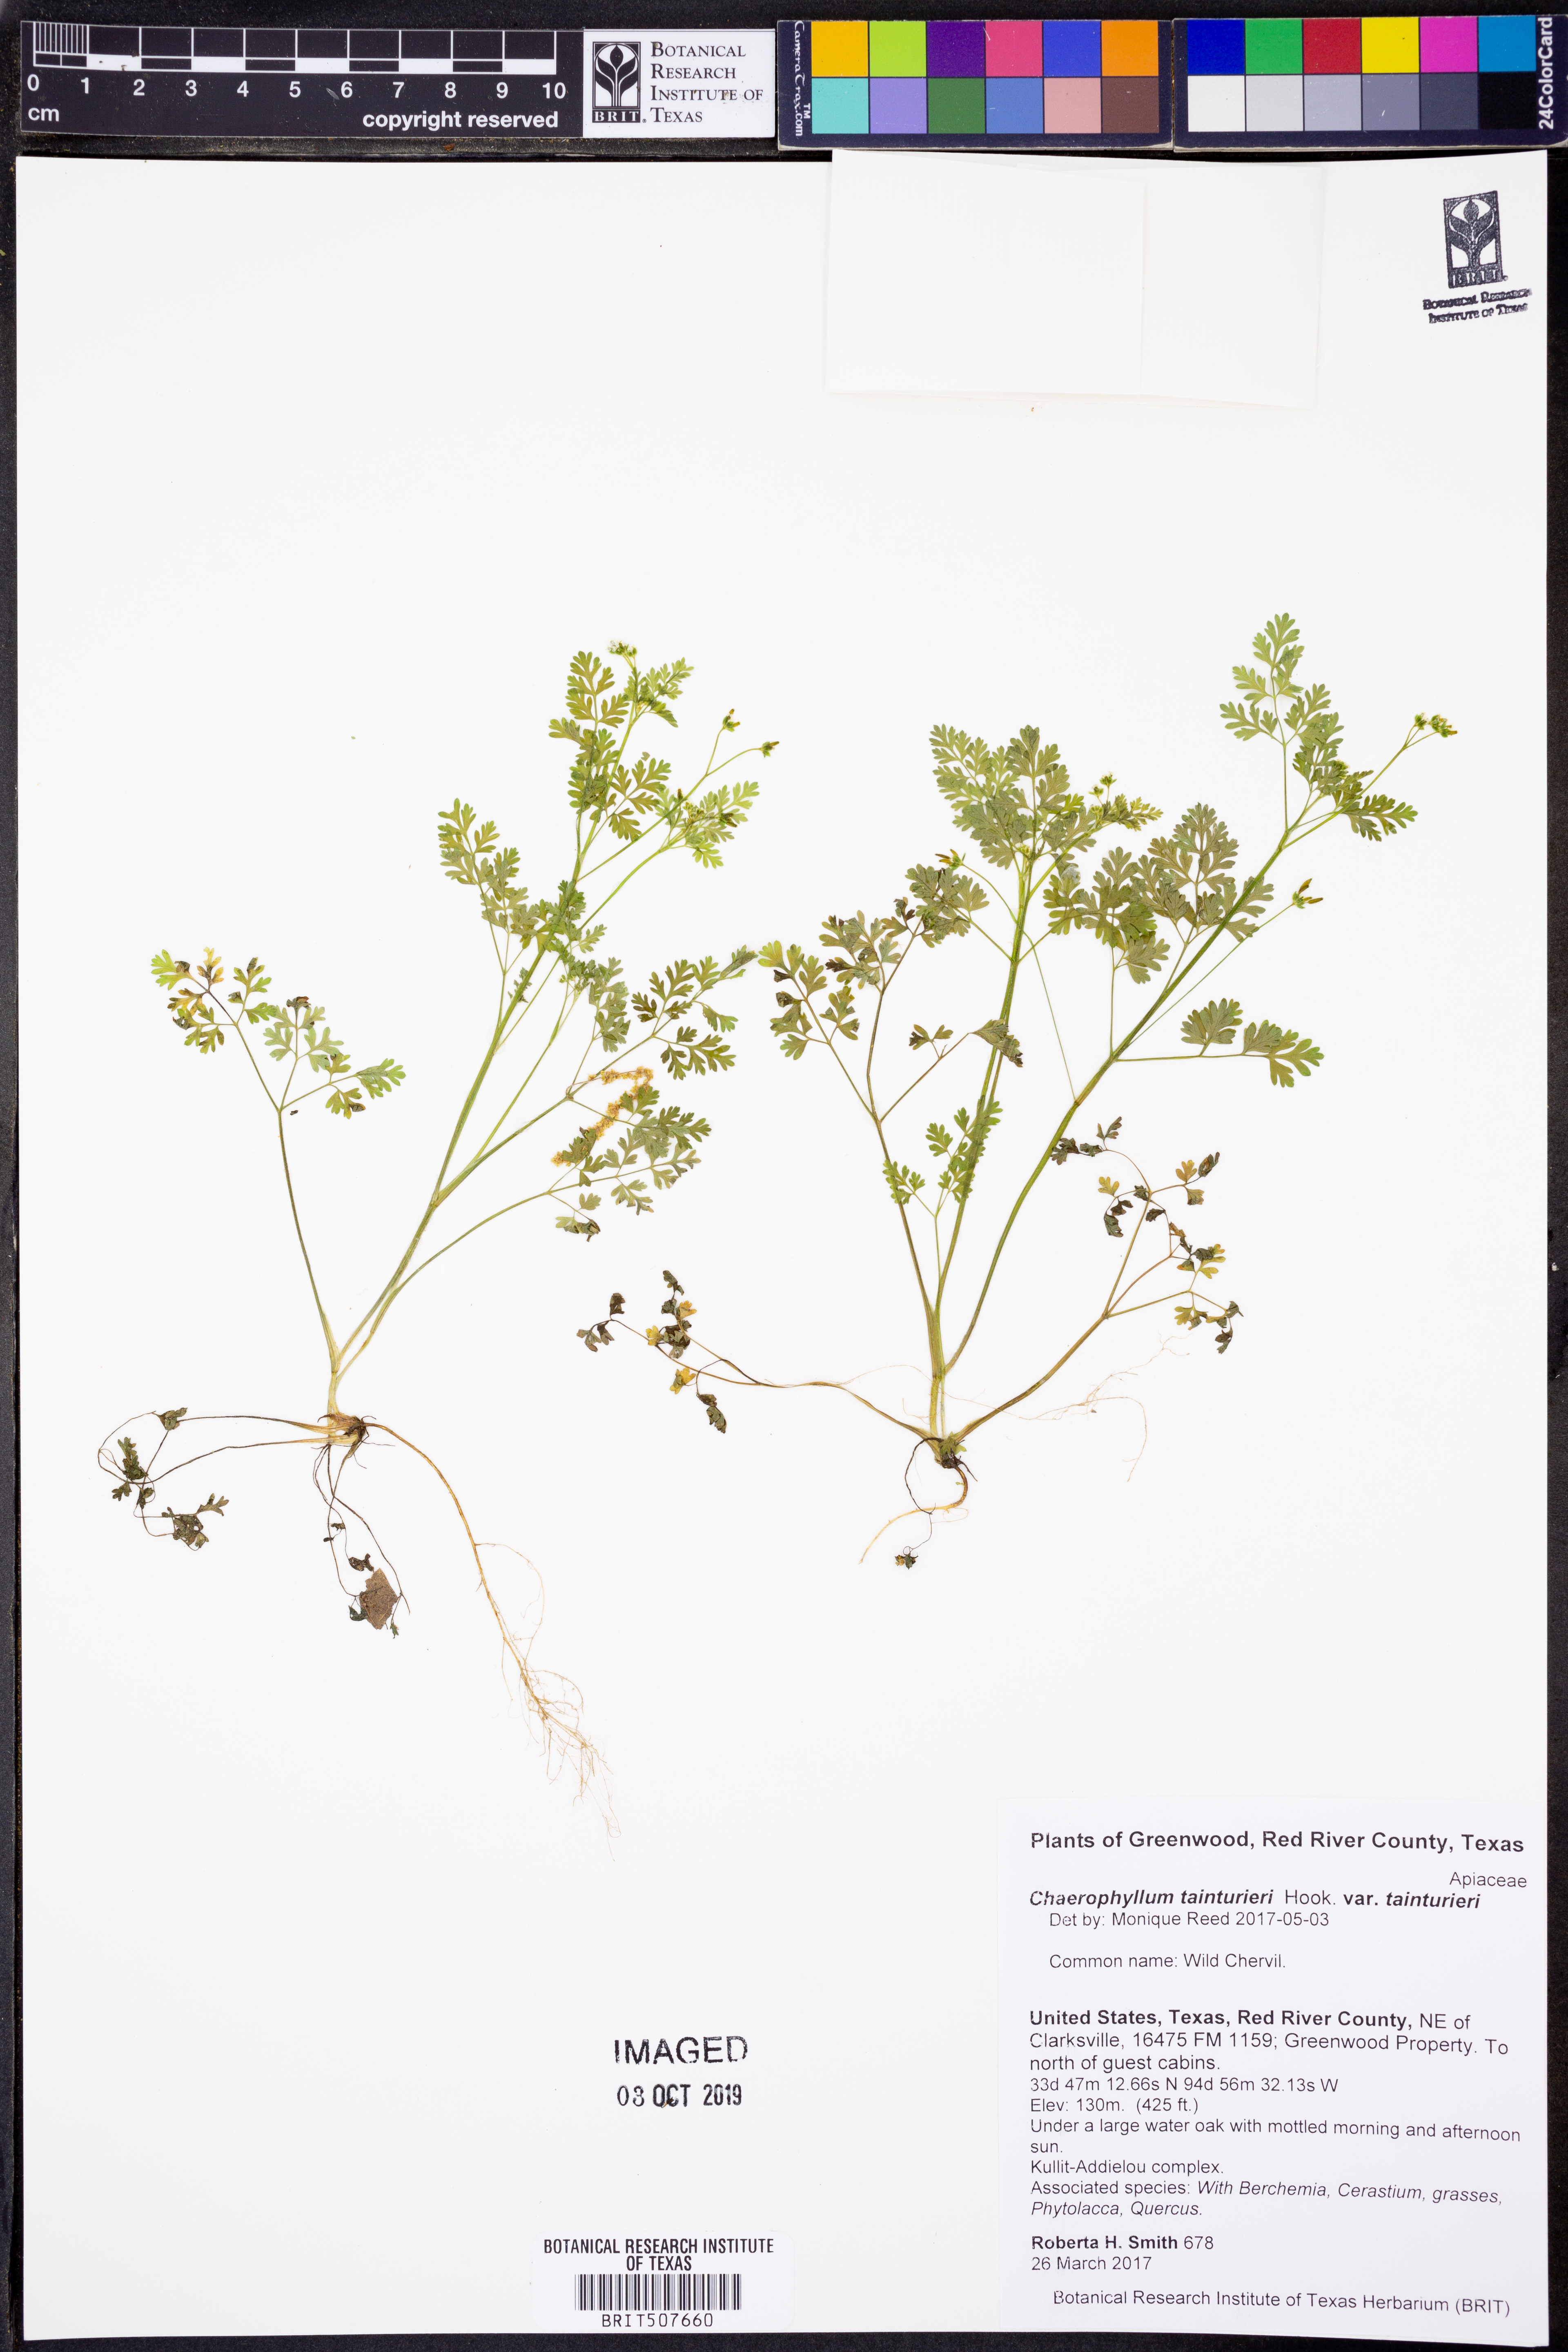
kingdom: Plantae
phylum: Tracheophyta
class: Magnoliopsida
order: Apiales
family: Apiaceae
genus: Chaerophyllum
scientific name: Chaerophyllum tainturieri
